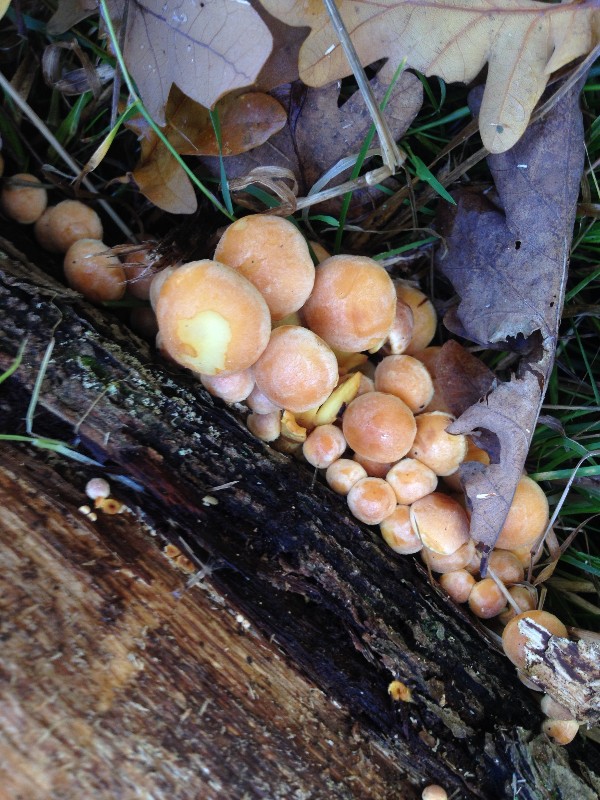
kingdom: Fungi
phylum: Basidiomycota
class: Agaricomycetes
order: Agaricales
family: Strophariaceae
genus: Hypholoma
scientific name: Hypholoma fasciculare
